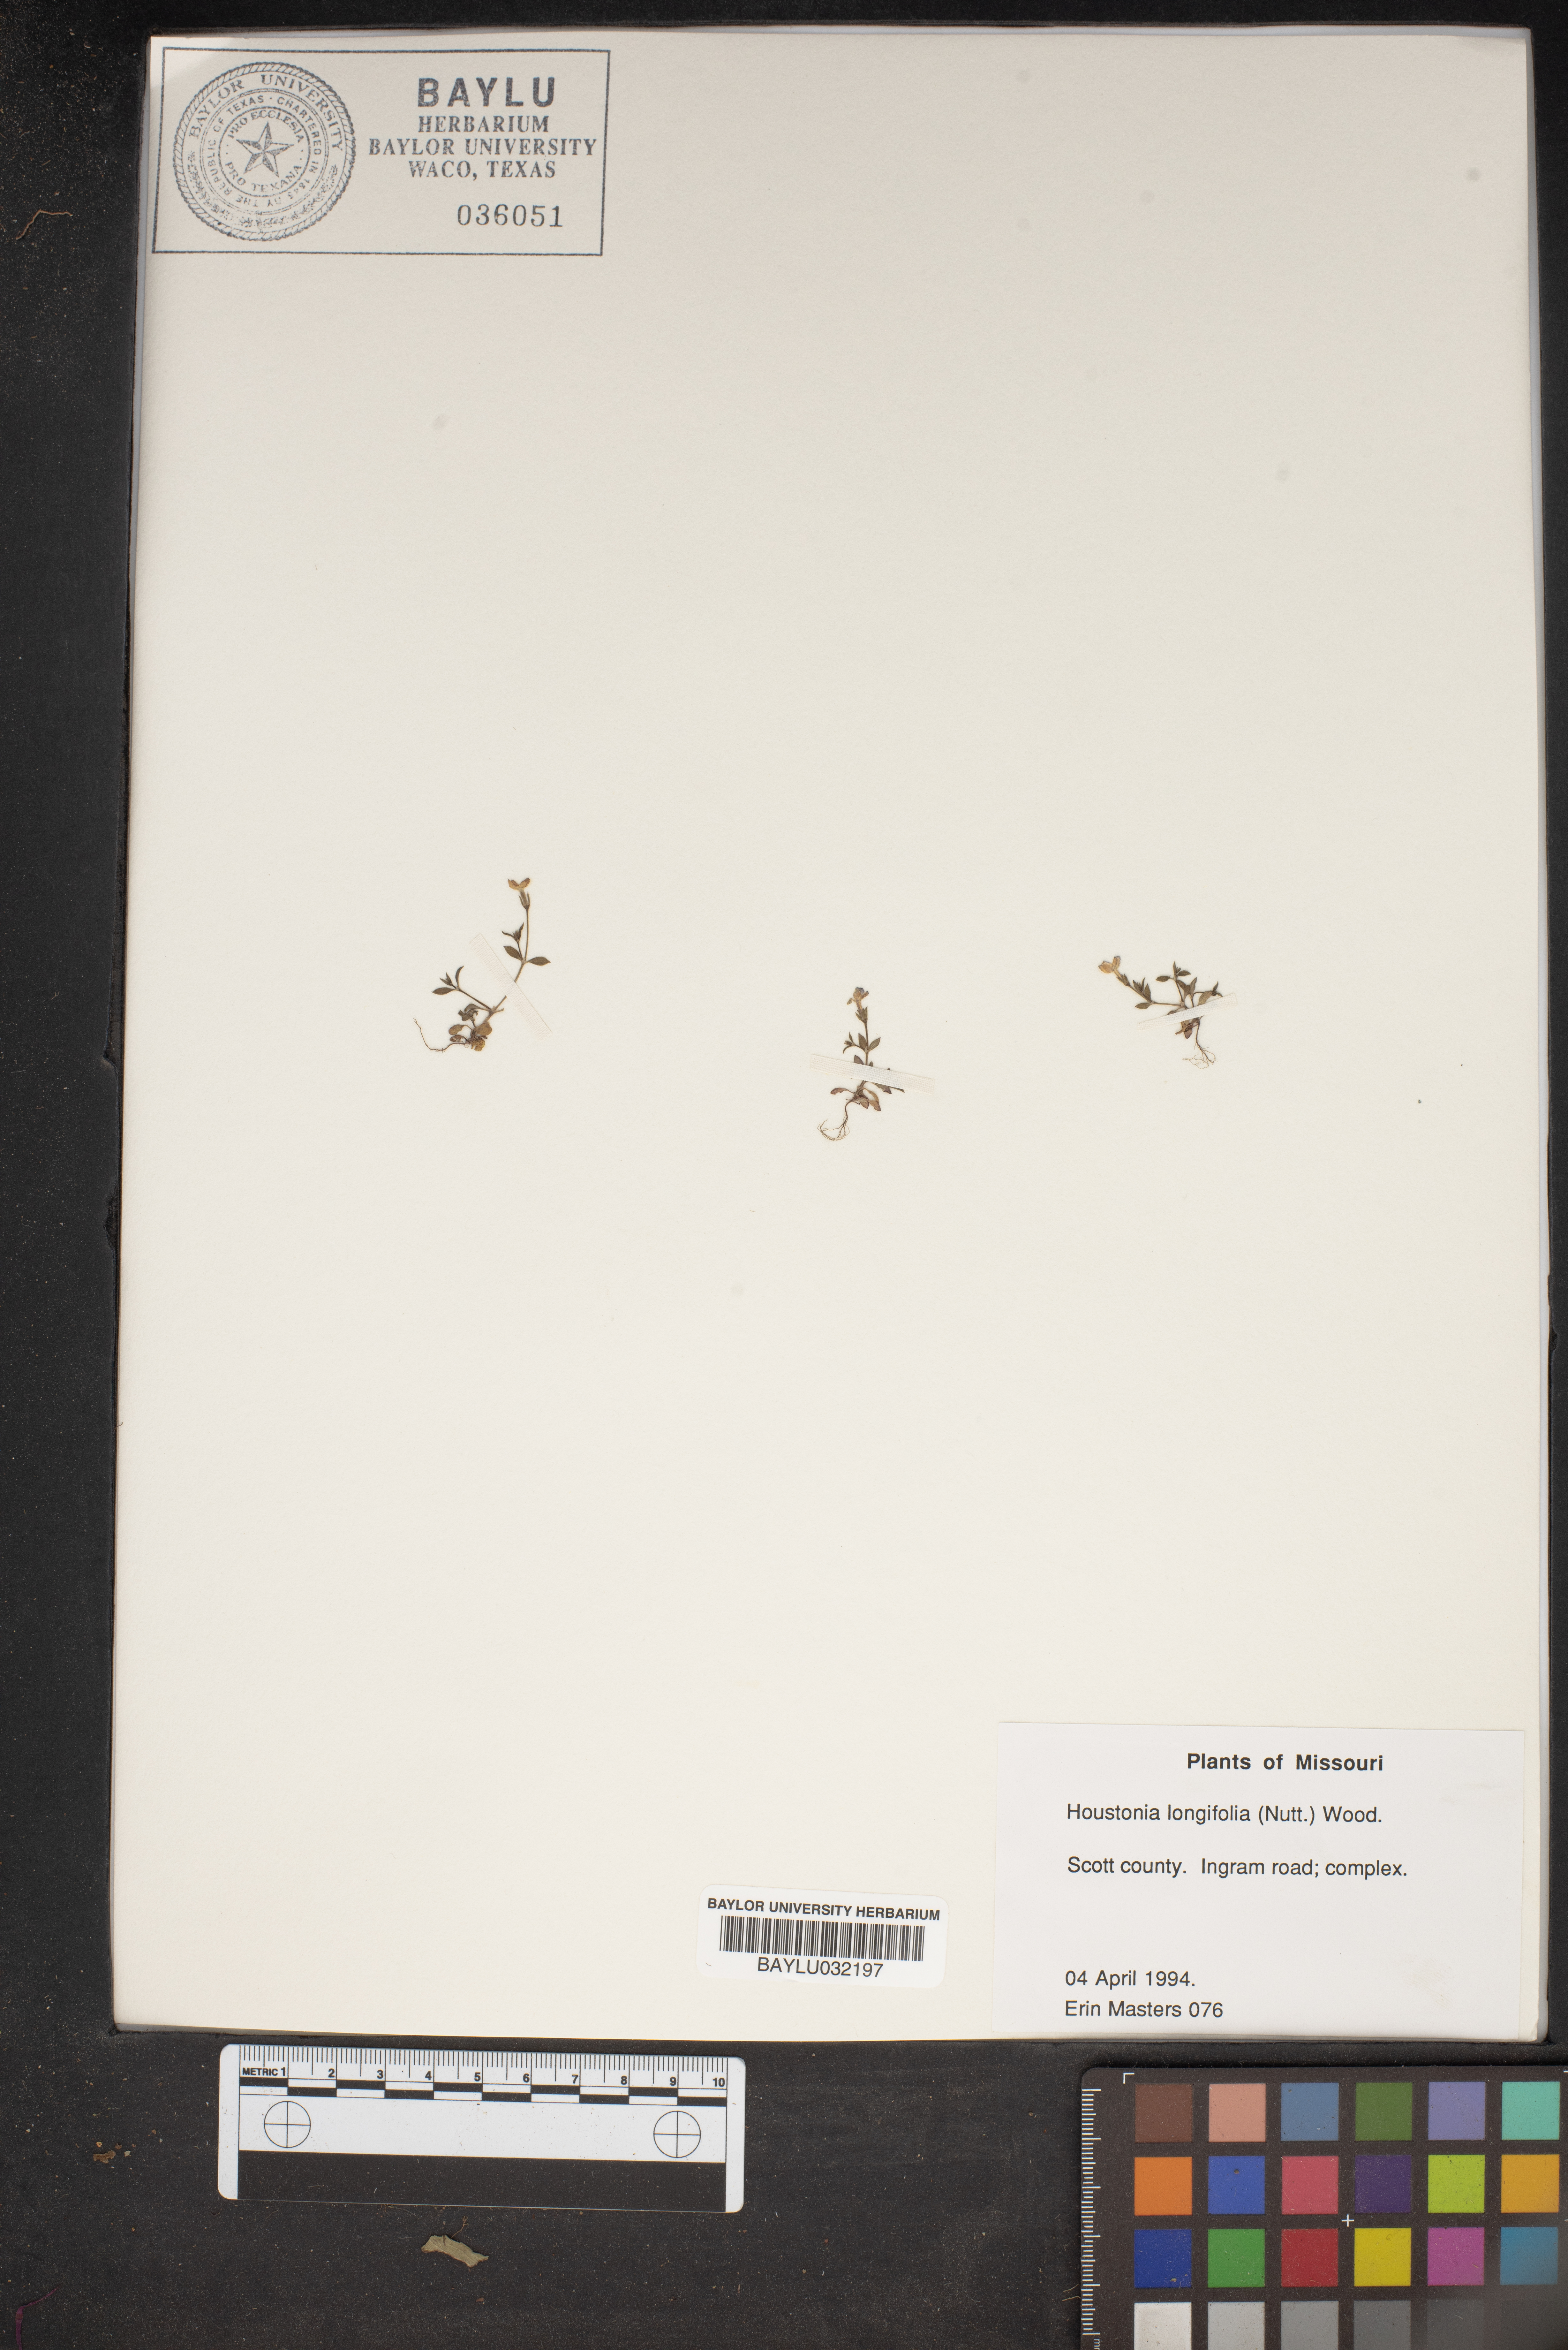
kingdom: Plantae
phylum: Tracheophyta
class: Magnoliopsida
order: Gentianales
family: Rubiaceae
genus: Houstonia
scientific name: Houstonia longifolia
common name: Long-leaved bluets
